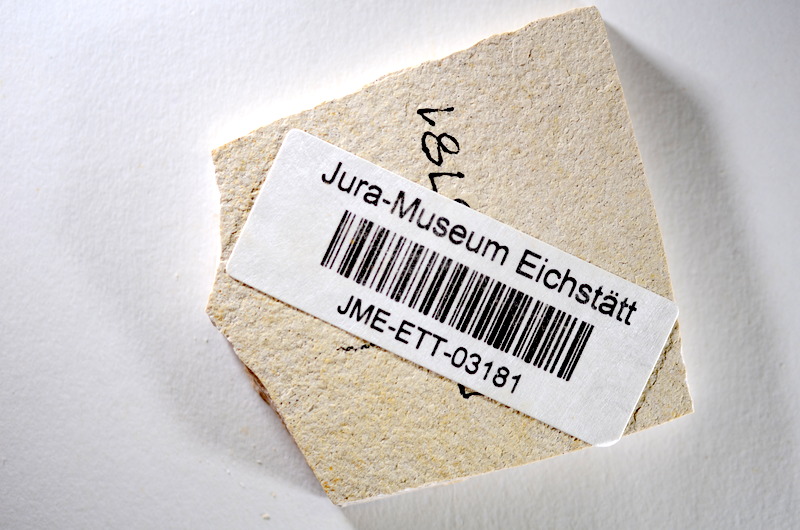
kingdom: Animalia
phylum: Chordata
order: Salmoniformes
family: Orthogonikleithridae
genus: Orthogonikleithrus
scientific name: Orthogonikleithrus hoelli
